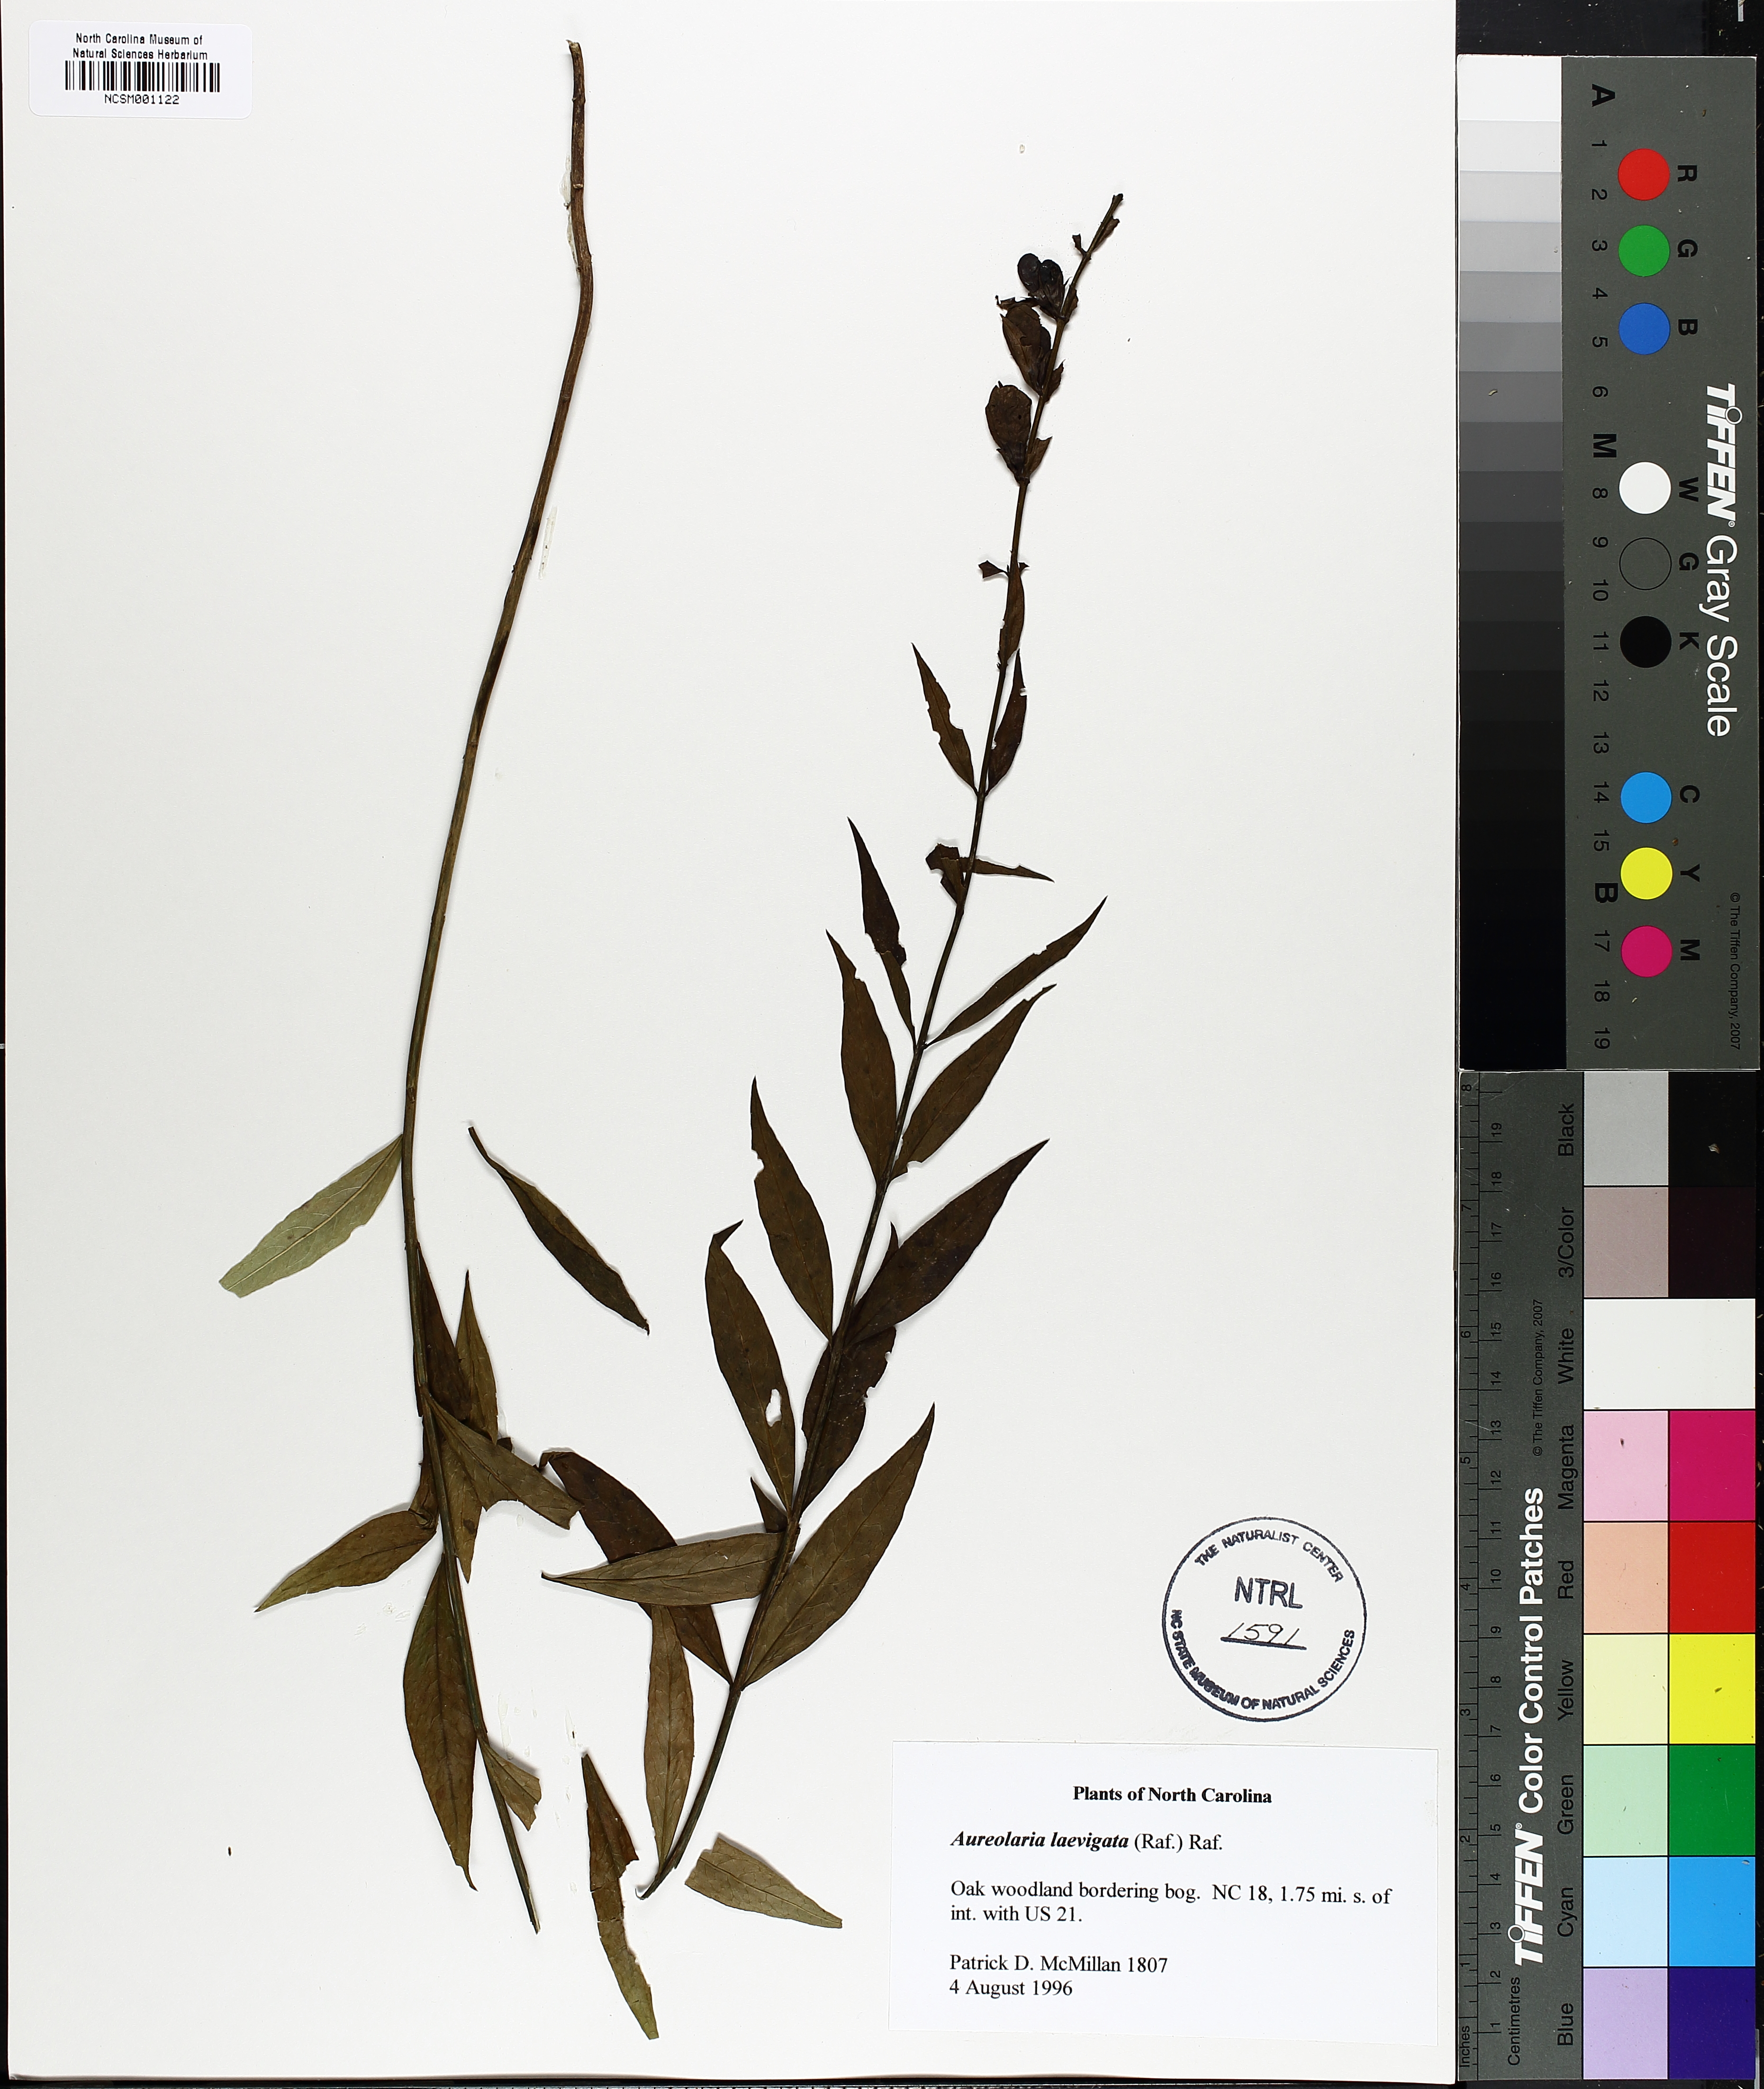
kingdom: Plantae
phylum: Tracheophyta
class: Magnoliopsida
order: Lamiales
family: Orobanchaceae
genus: Aureolaria
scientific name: Aureolaria laevigata
